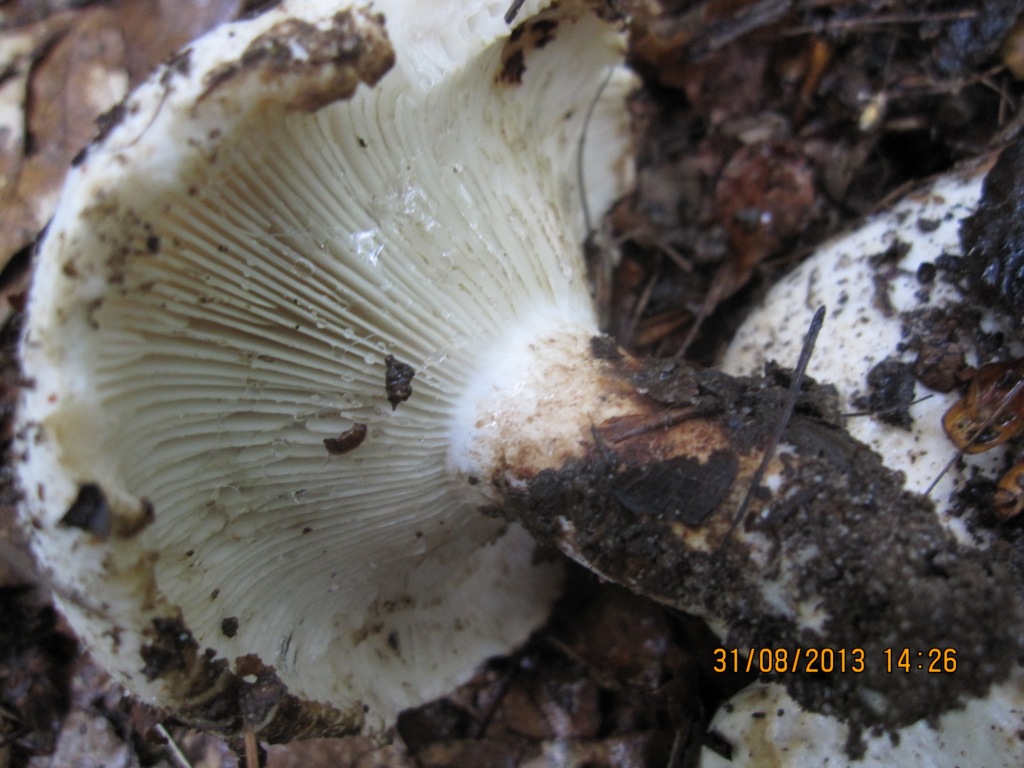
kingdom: Fungi
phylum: Basidiomycota
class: Agaricomycetes
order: Russulales
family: Russulaceae
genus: Russula
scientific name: Russula delica
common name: almindelig tragt-skørhat
